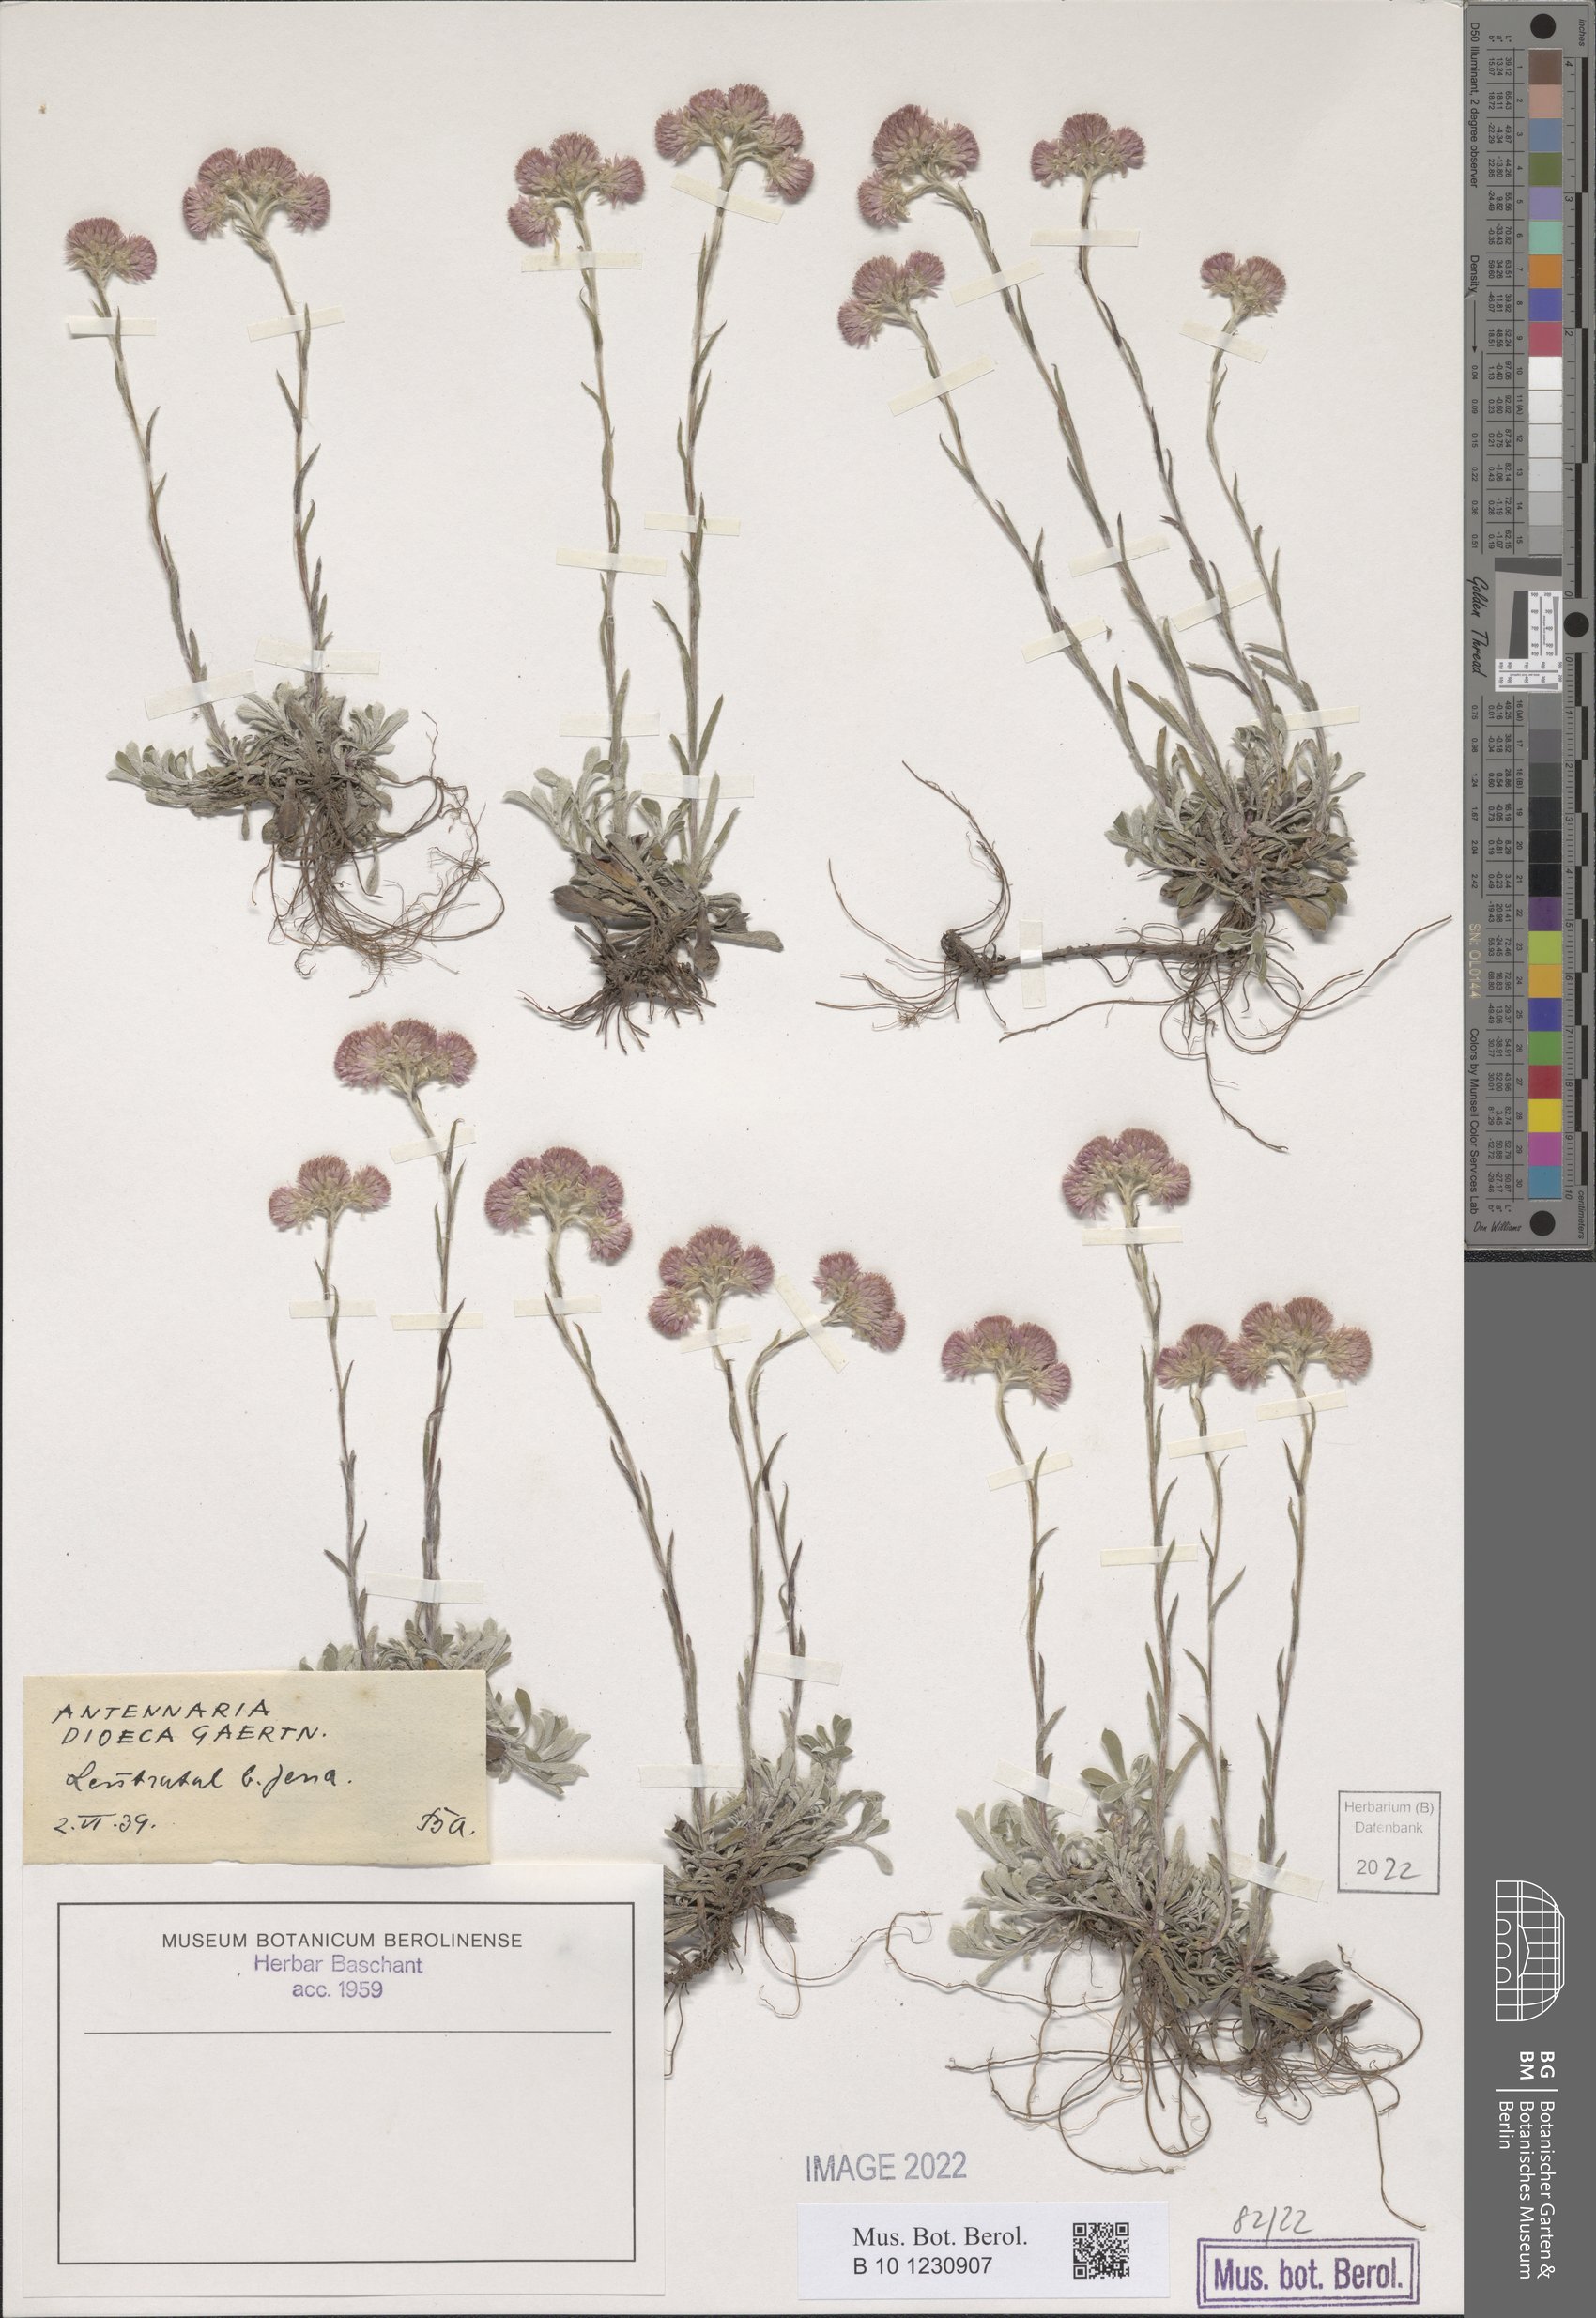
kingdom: Plantae
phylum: Tracheophyta
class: Magnoliopsida
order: Asterales
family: Asteraceae
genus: Antennaria
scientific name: Antennaria dioica
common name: Mountain everlasting
